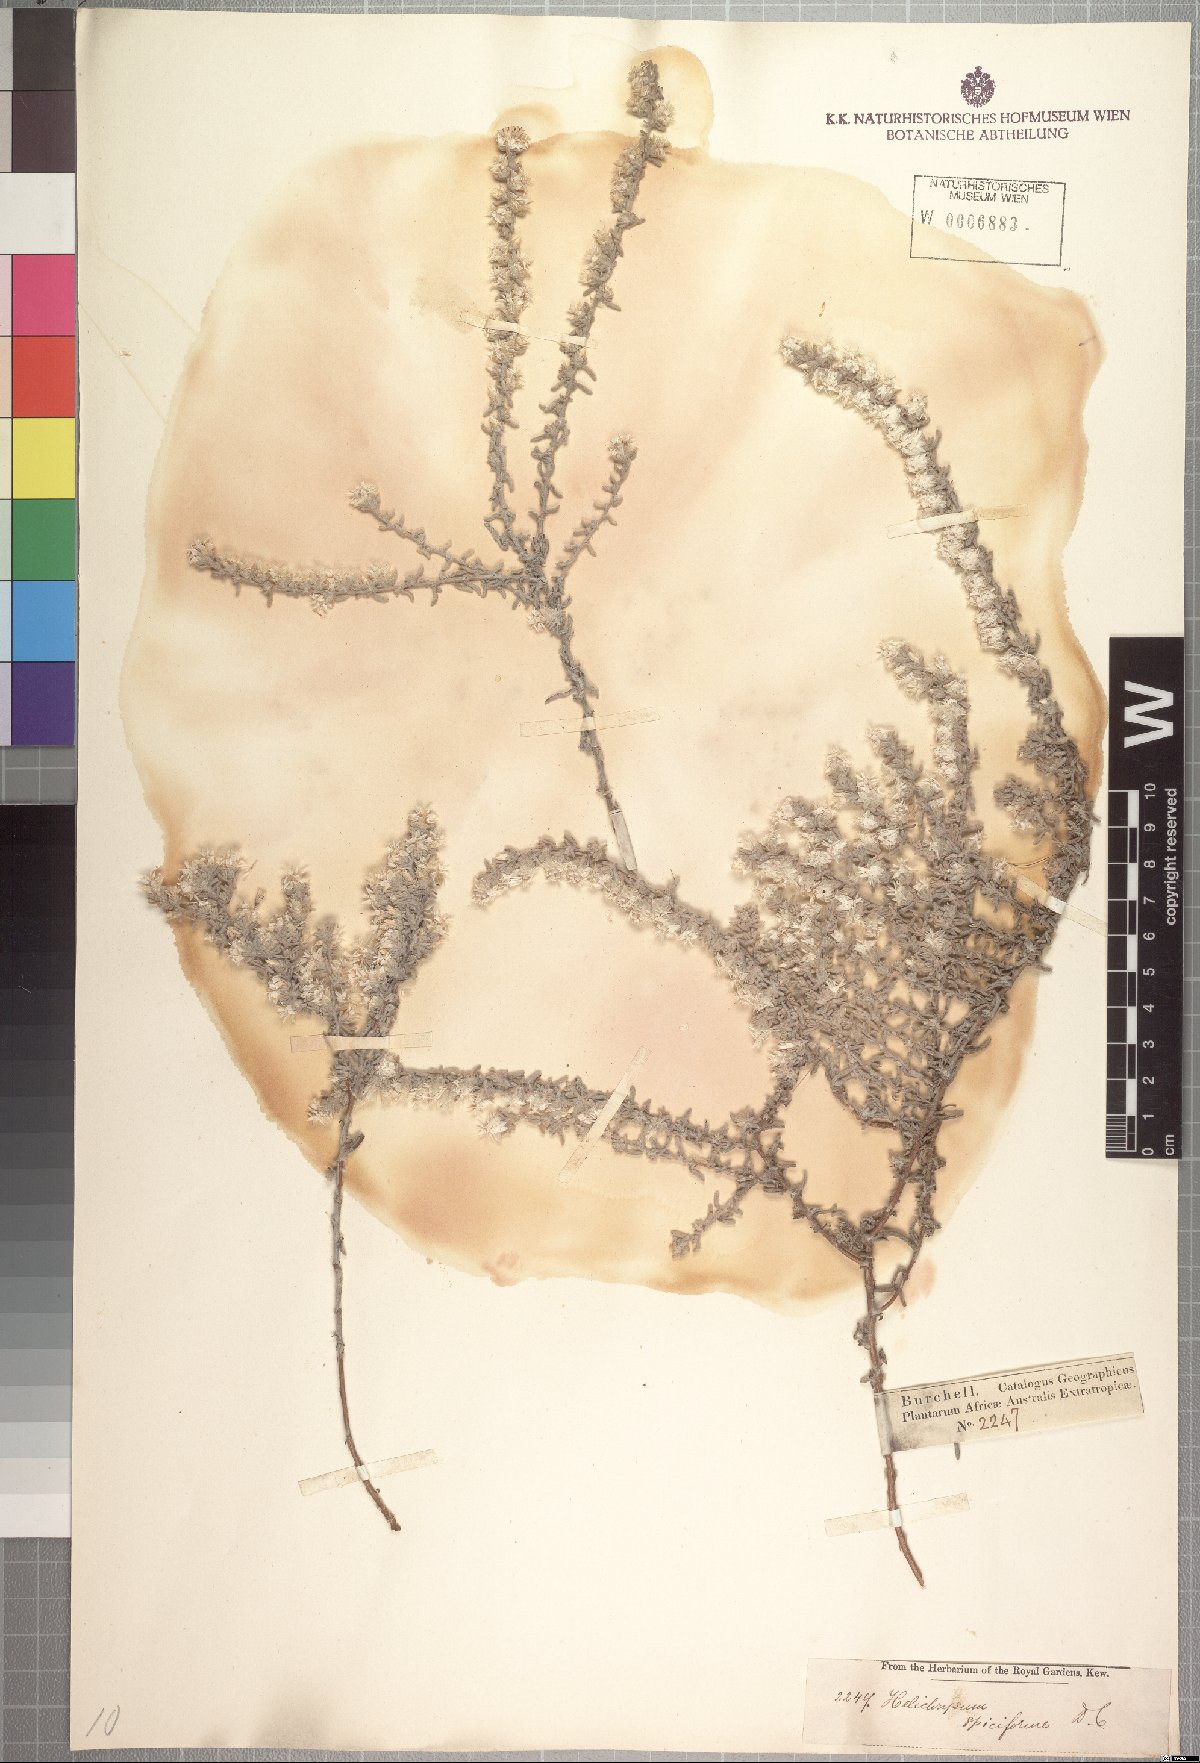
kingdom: Plantae
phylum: Tracheophyta
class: Magnoliopsida
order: Asterales
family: Asteraceae
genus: Helichrysum
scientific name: Helichrysum spiciforme
